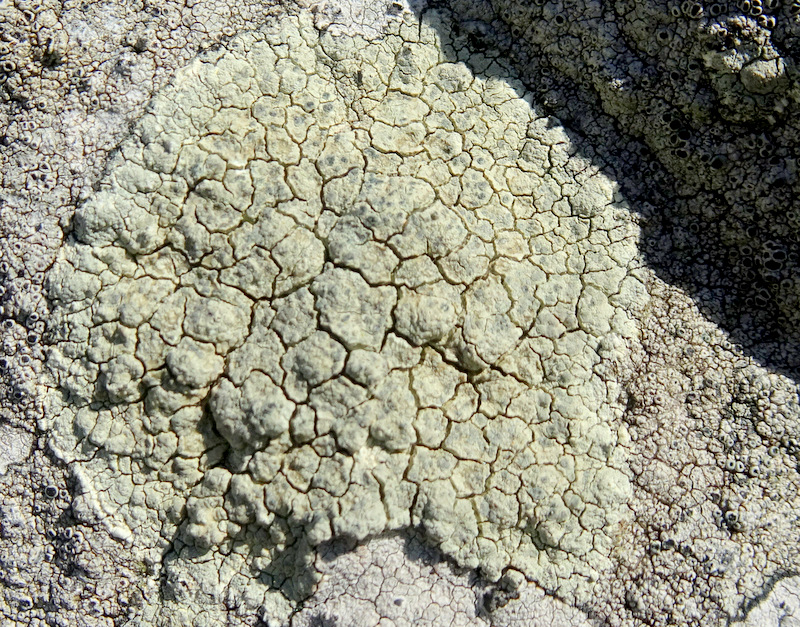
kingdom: Fungi
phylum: Ascomycota
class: Lecanoromycetes
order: Lecanorales
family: Lecanoraceae
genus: Glaucomaria
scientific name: Glaucomaria sulphurea
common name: svovlgul kantskivelav
